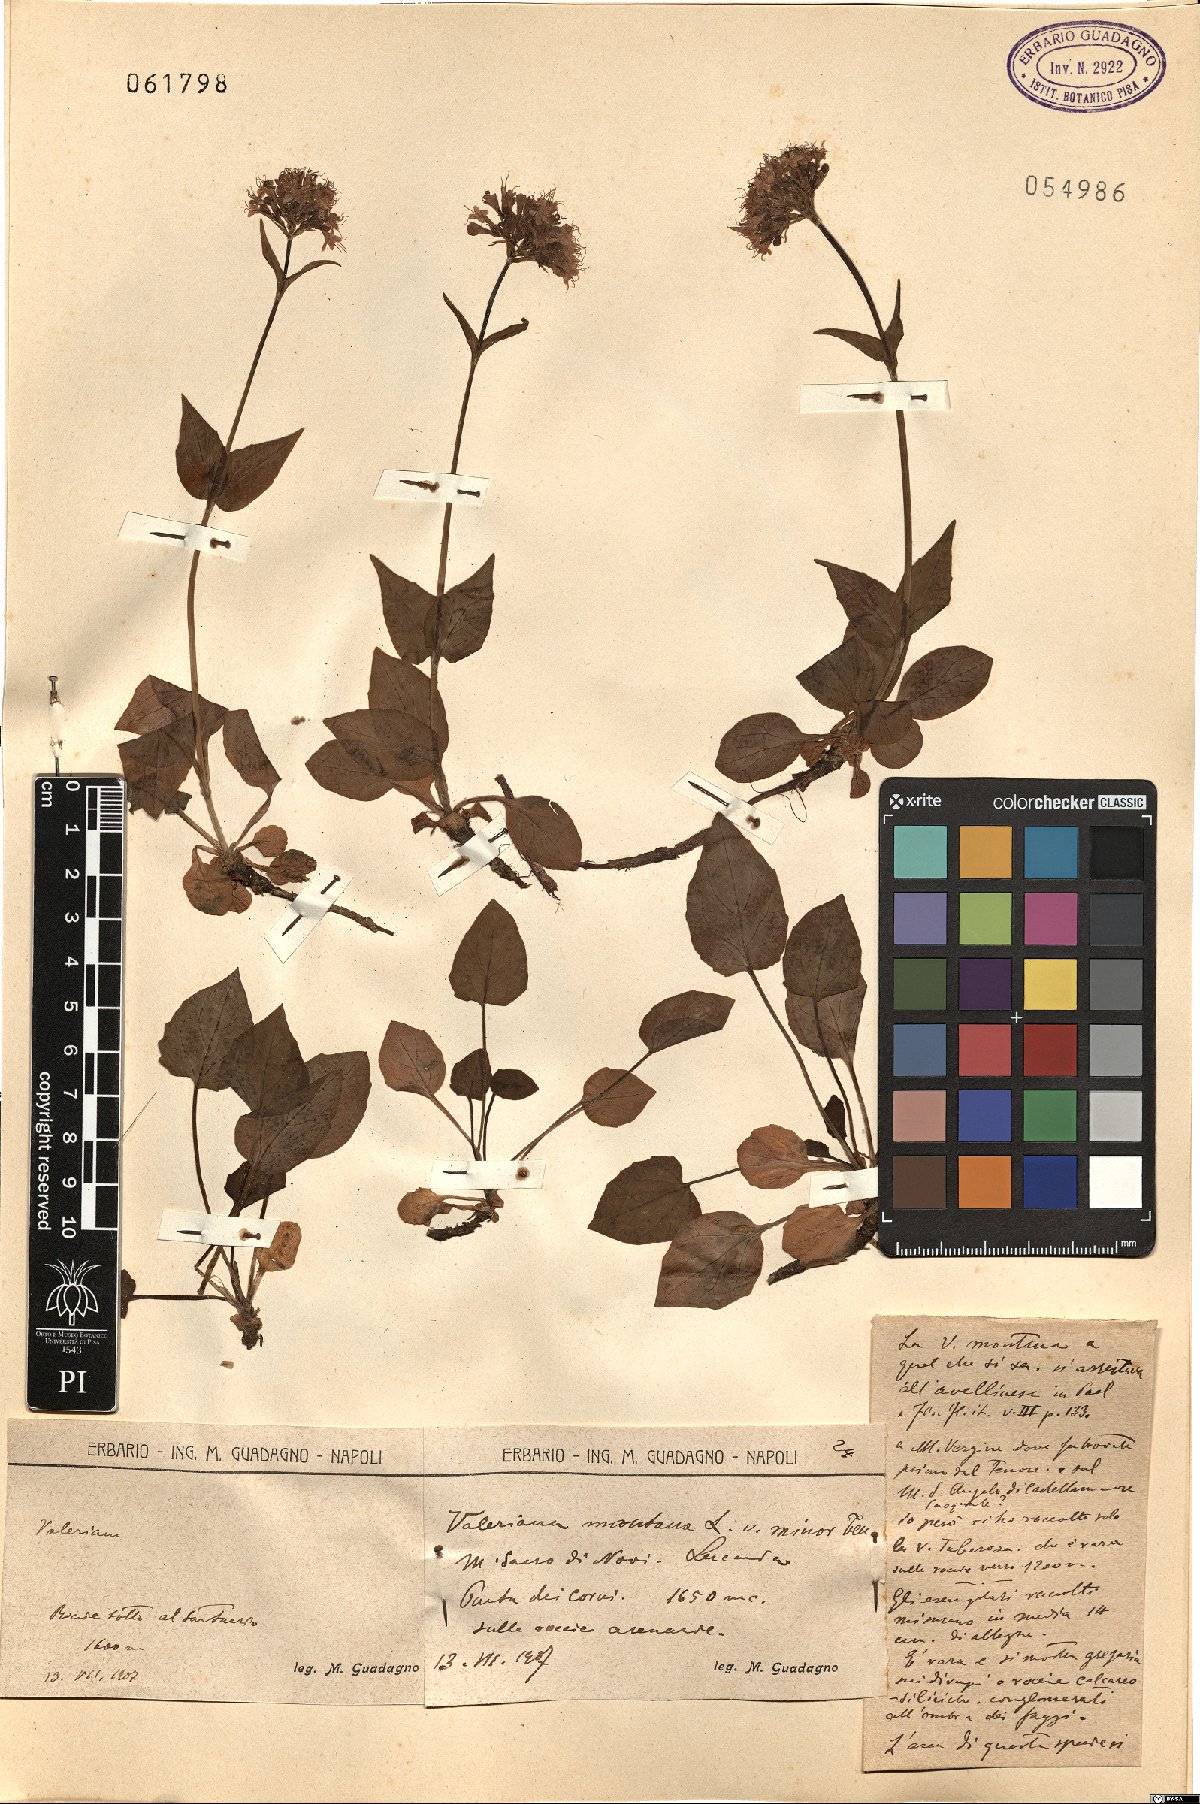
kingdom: Plantae
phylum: Tracheophyta
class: Magnoliopsida
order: Dipsacales
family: Caprifoliaceae
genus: Valeriana
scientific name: Valeriana montana
